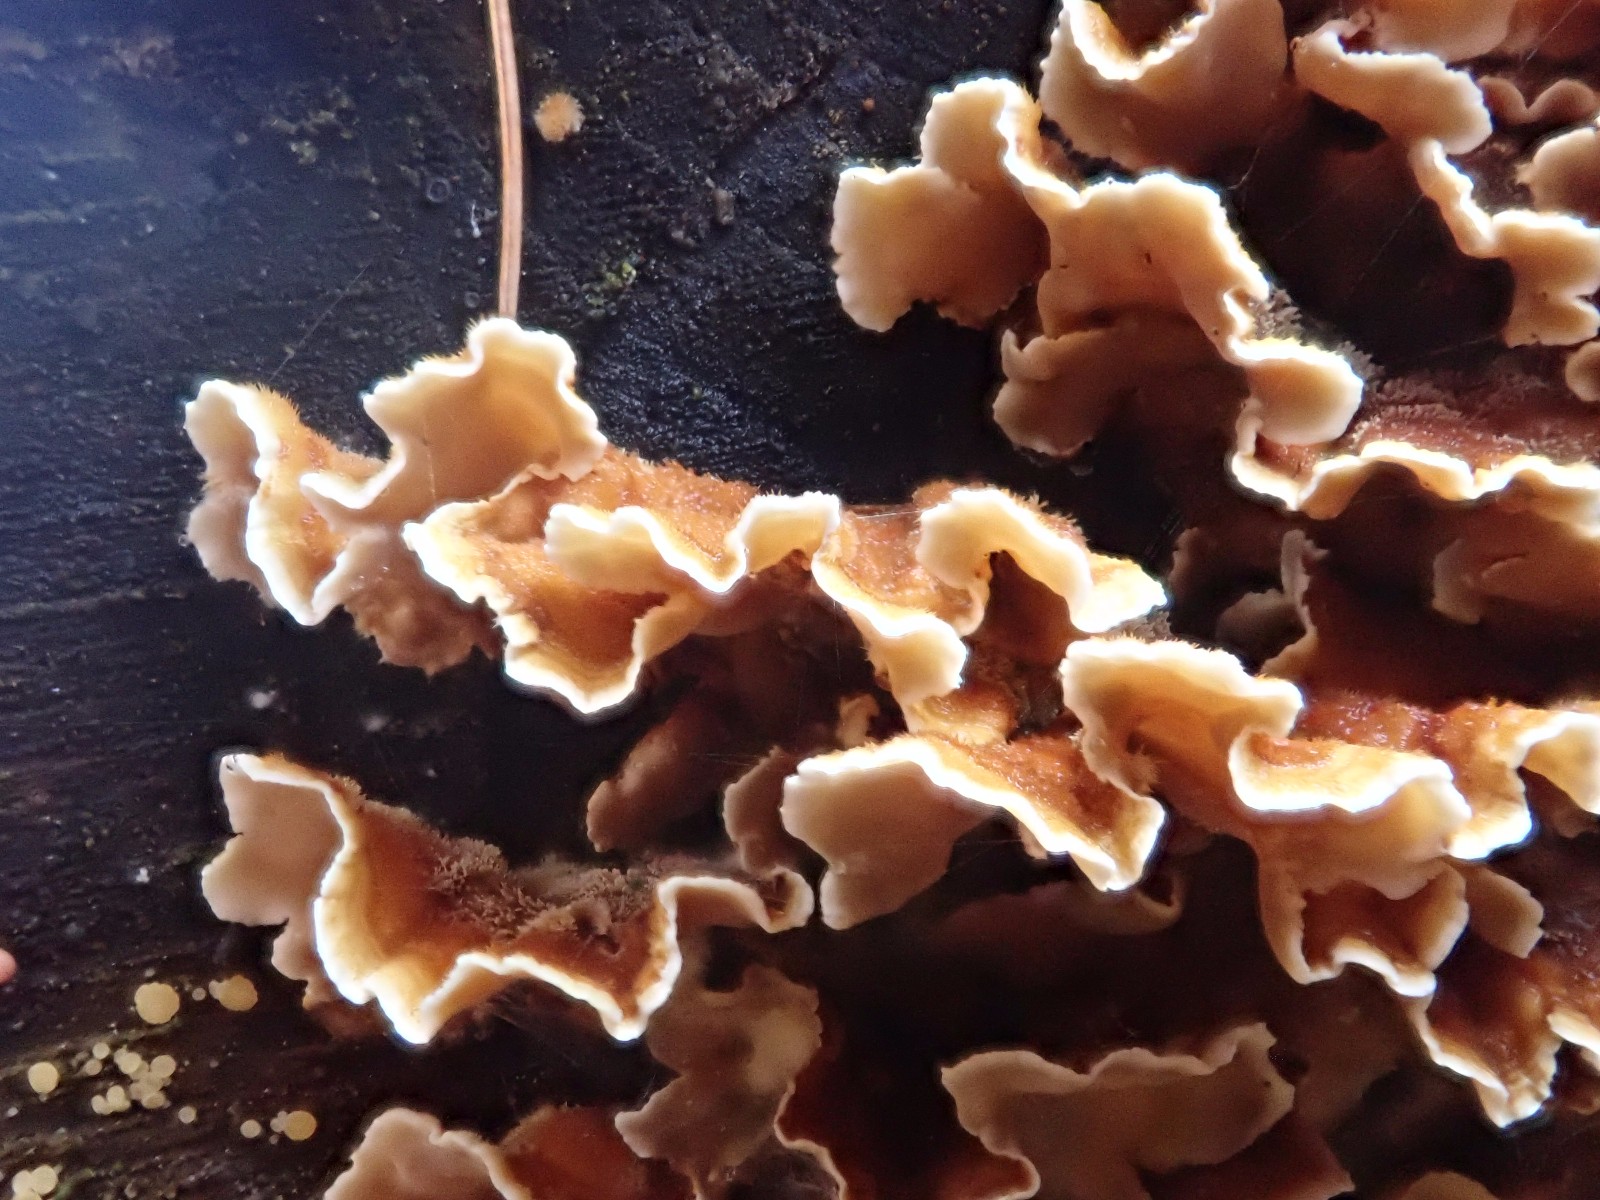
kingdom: Fungi
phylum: Basidiomycota
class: Agaricomycetes
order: Russulales
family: Stereaceae
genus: Stereum
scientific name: Stereum hirsutum
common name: håret lædersvamp
